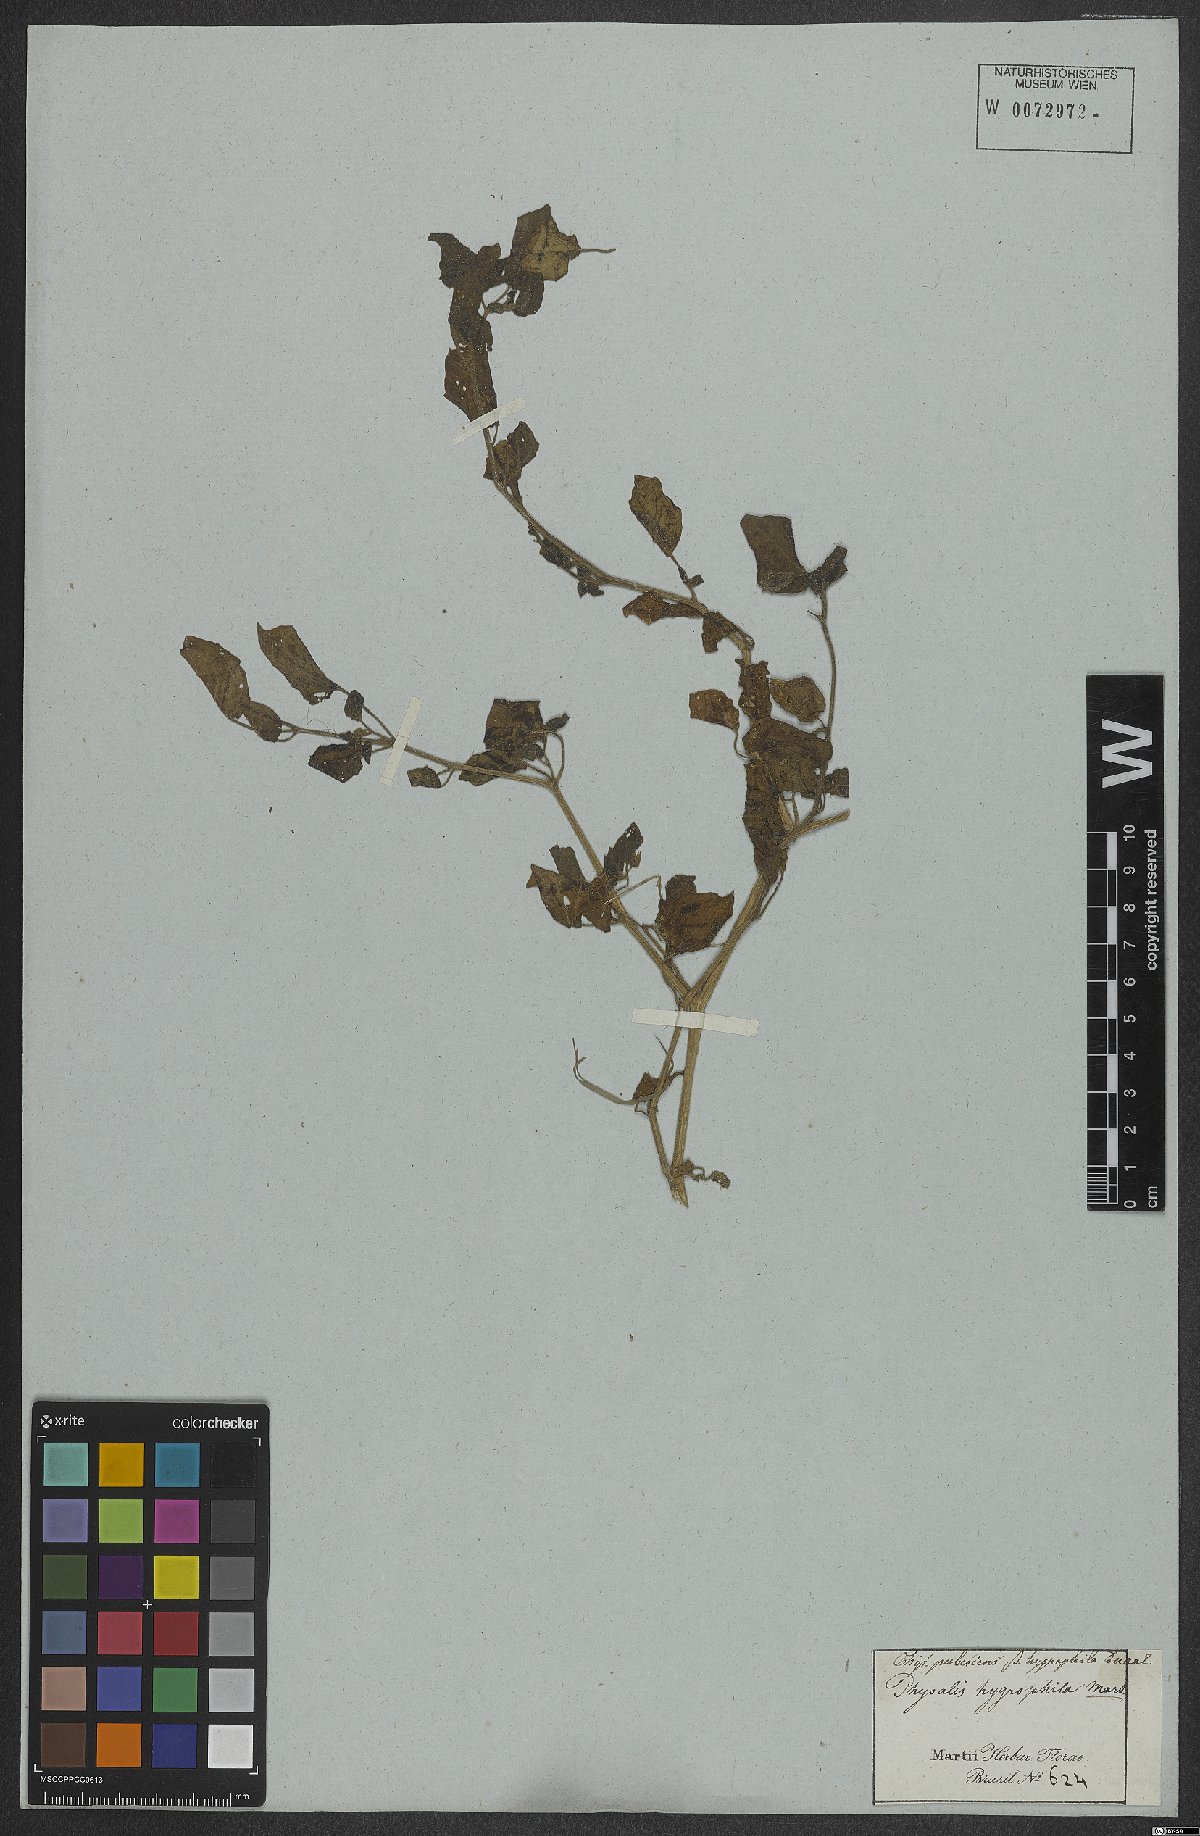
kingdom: Plantae
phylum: Tracheophyta
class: Magnoliopsida
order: Solanales
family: Solanaceae
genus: Physalis
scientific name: Physalis pubescens
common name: Downy ground-cherry
